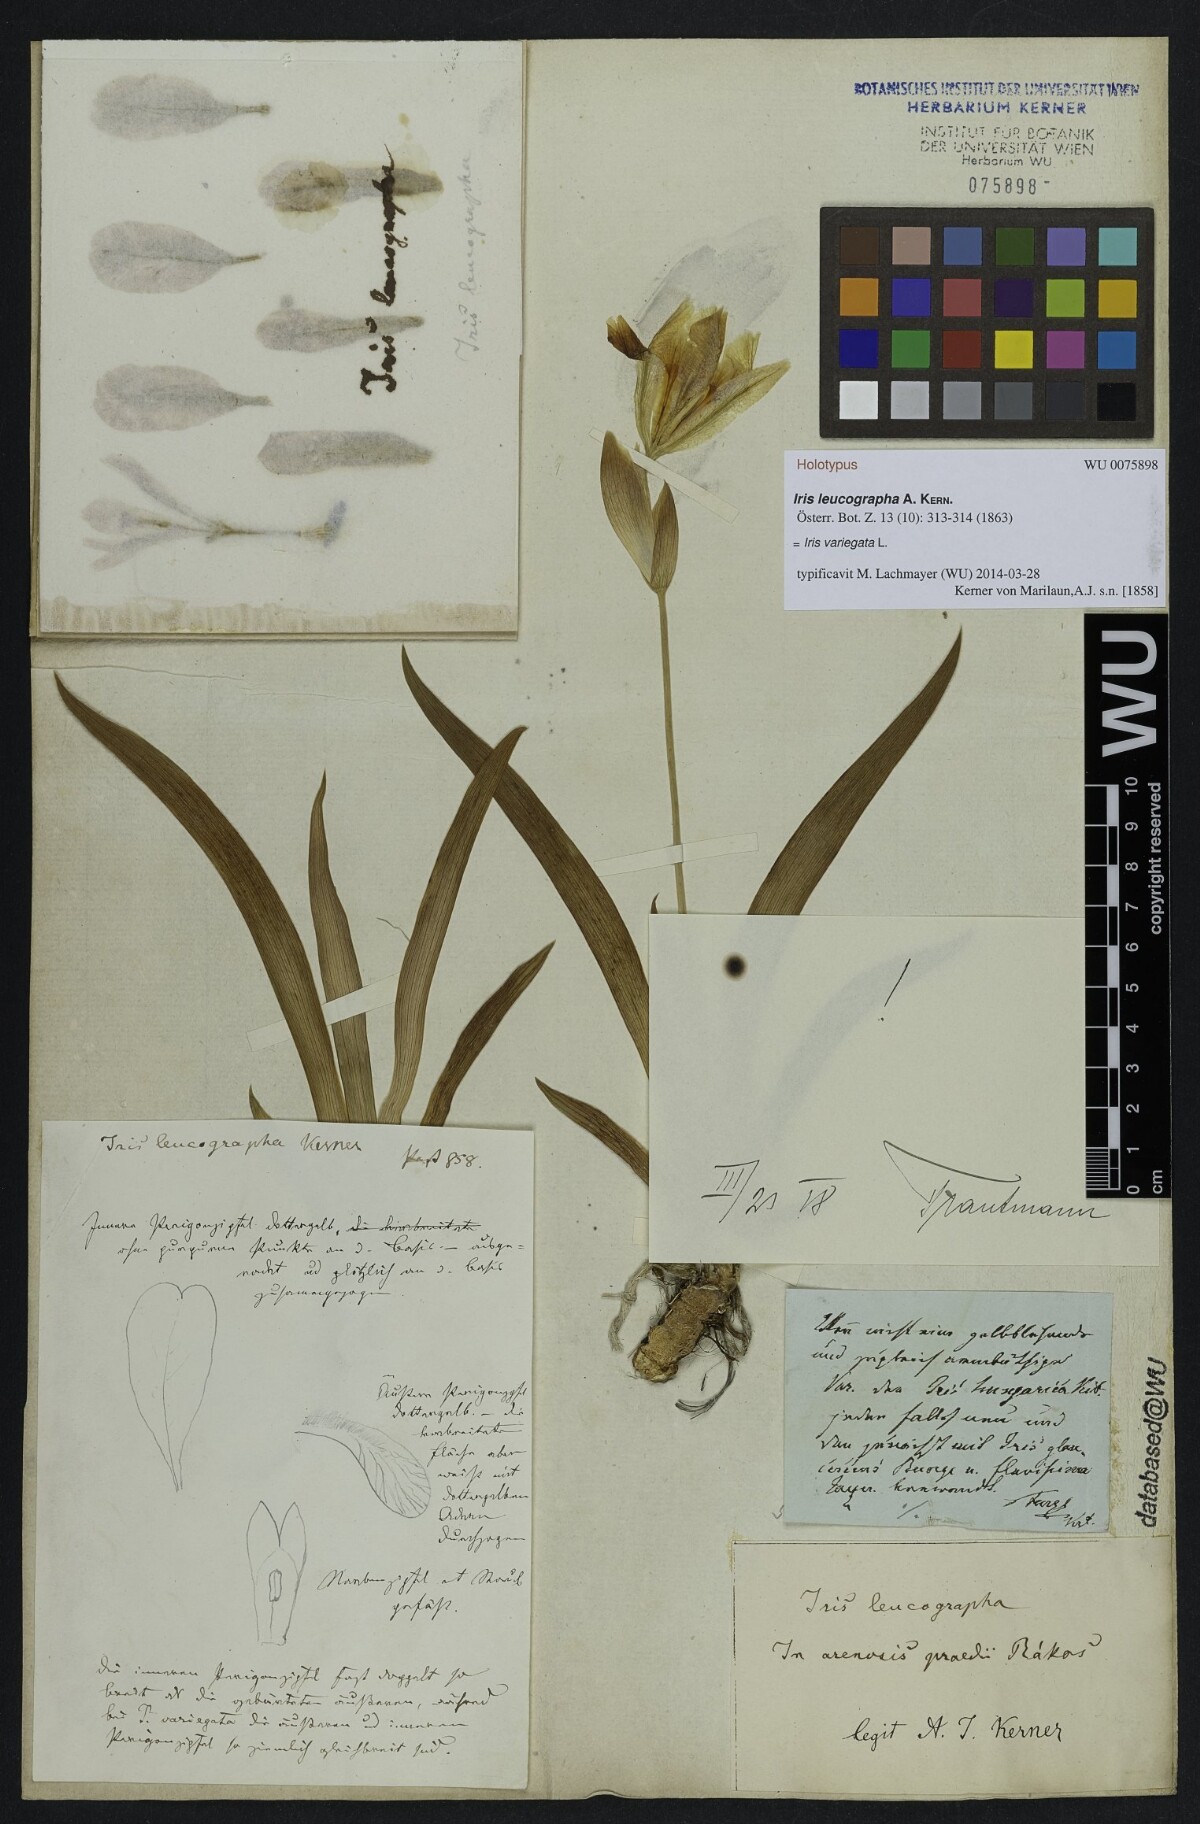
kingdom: Plantae
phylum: Tracheophyta
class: Liliopsida
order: Asparagales
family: Iridaceae
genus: Iris
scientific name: Iris variegata
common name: Hungarian iris
